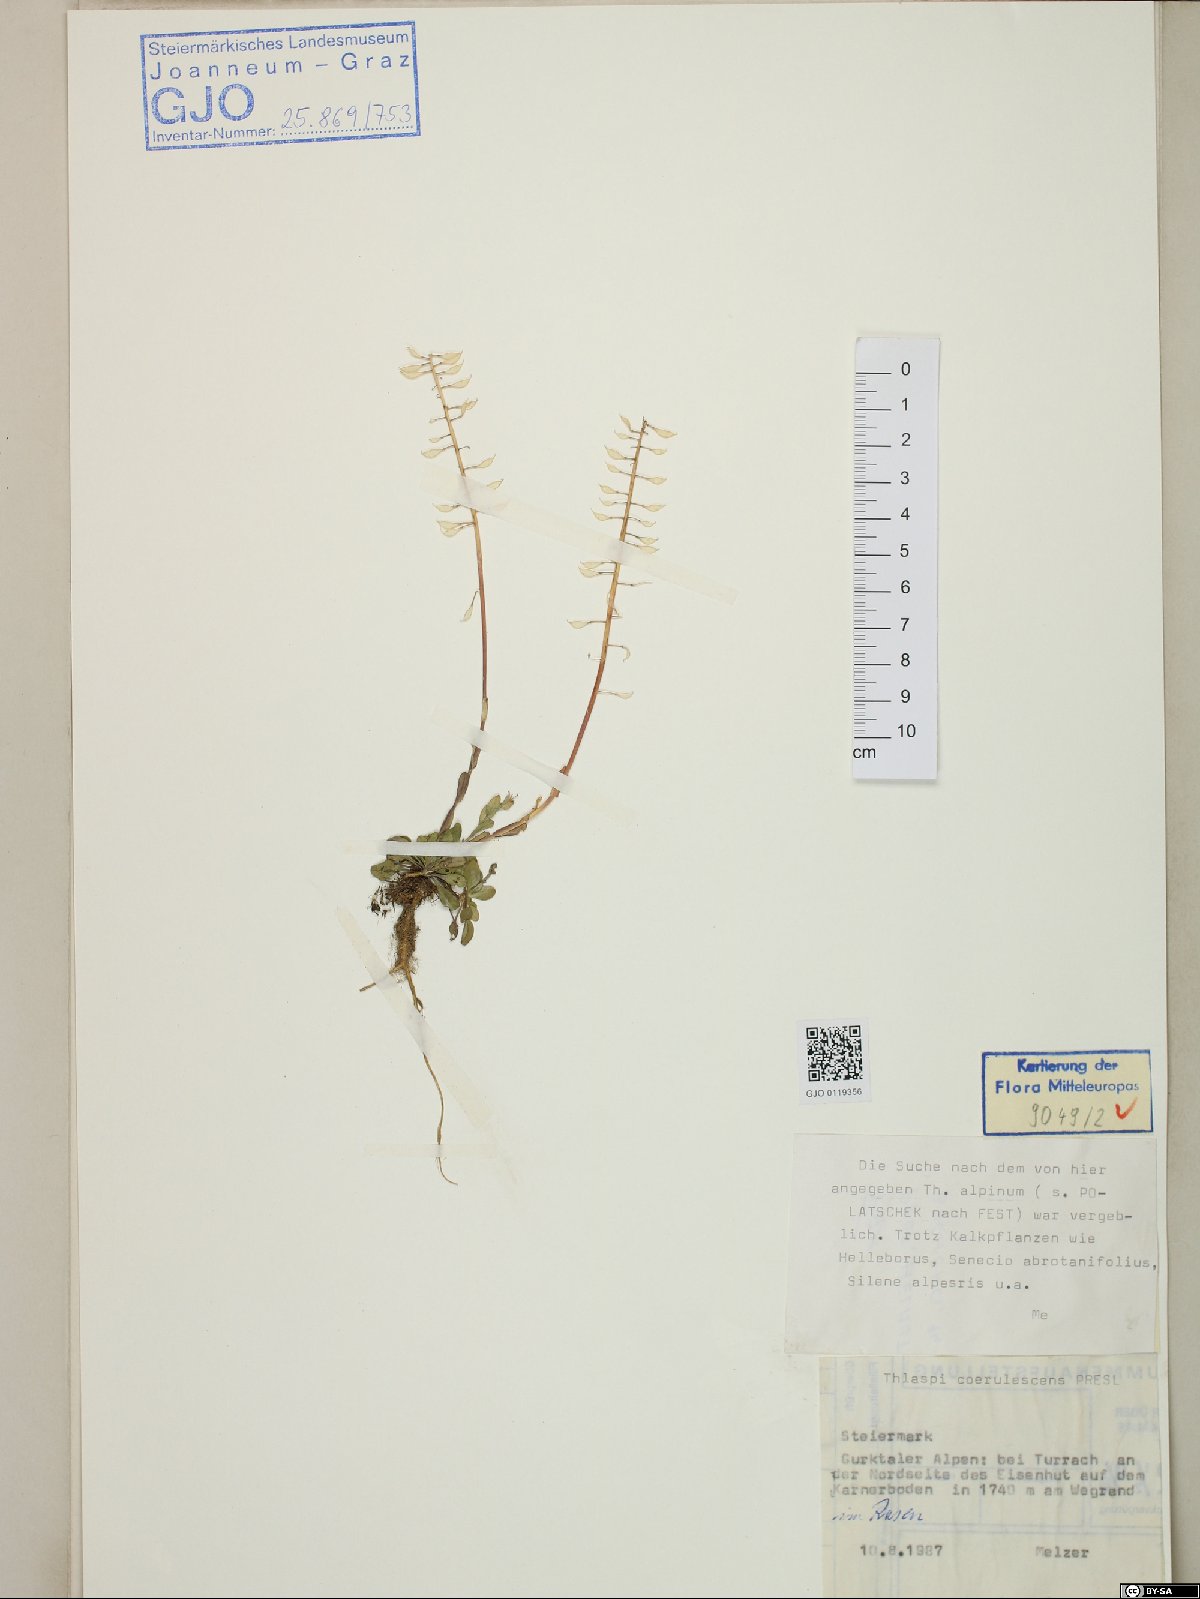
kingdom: Plantae
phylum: Tracheophyta
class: Magnoliopsida
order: Brassicales
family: Brassicaceae
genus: Noccaea
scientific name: Noccaea caerulescens
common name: Alpine pennycress
